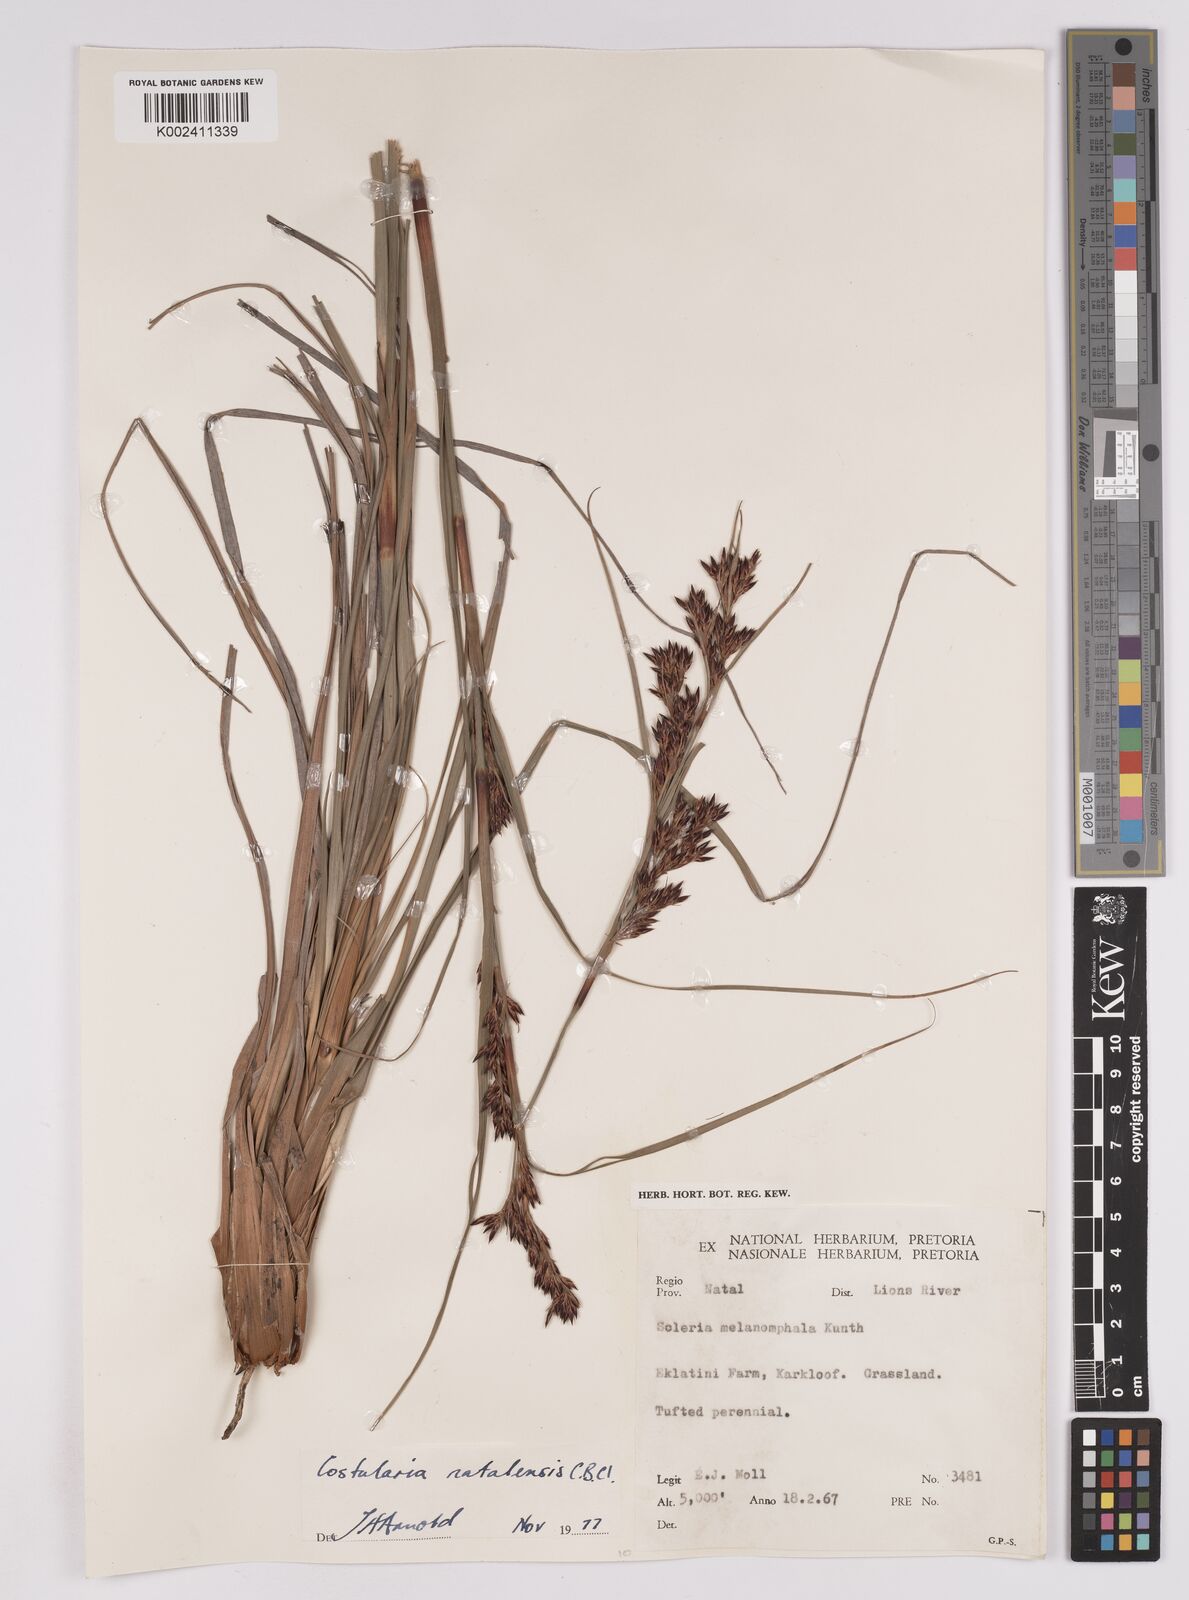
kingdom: Plantae
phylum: Tracheophyta
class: Liliopsida
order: Poales
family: Cyperaceae
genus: Costularia
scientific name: Costularia natalensis
